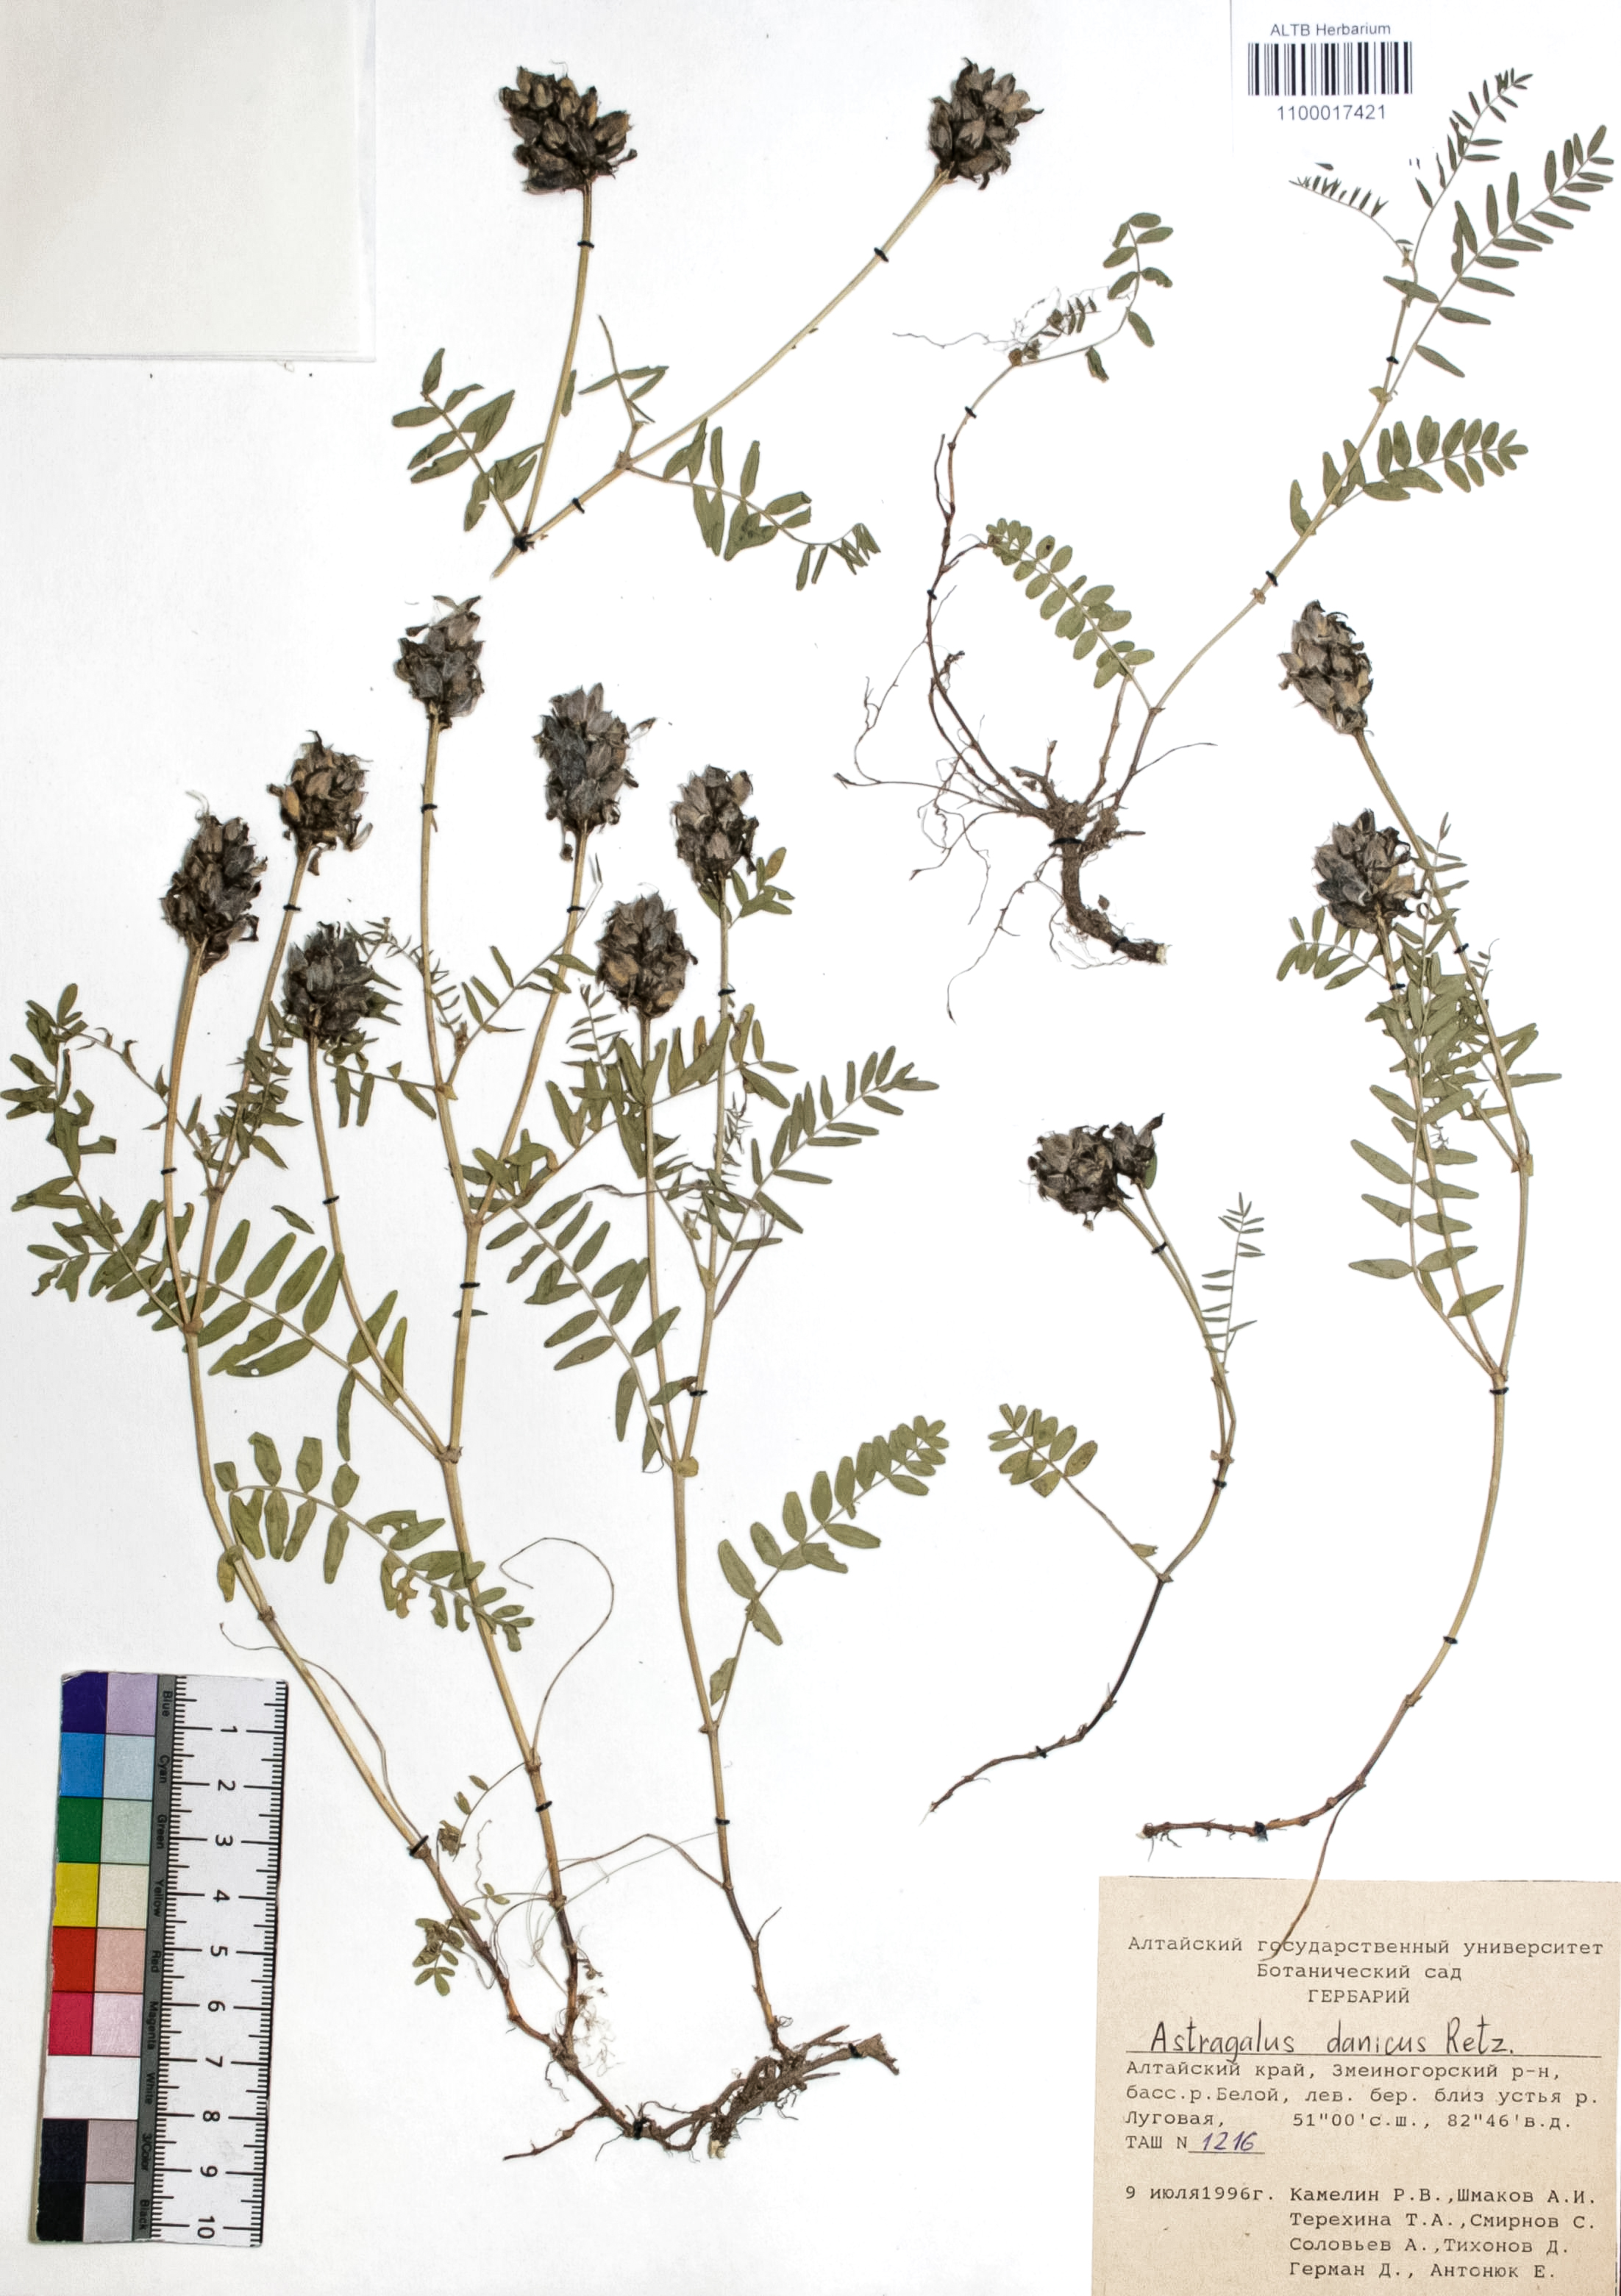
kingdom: Plantae
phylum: Tracheophyta
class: Magnoliopsida
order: Fabales
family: Fabaceae
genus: Astragalus
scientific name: Astragalus danicus
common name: Purple milk-vetch
